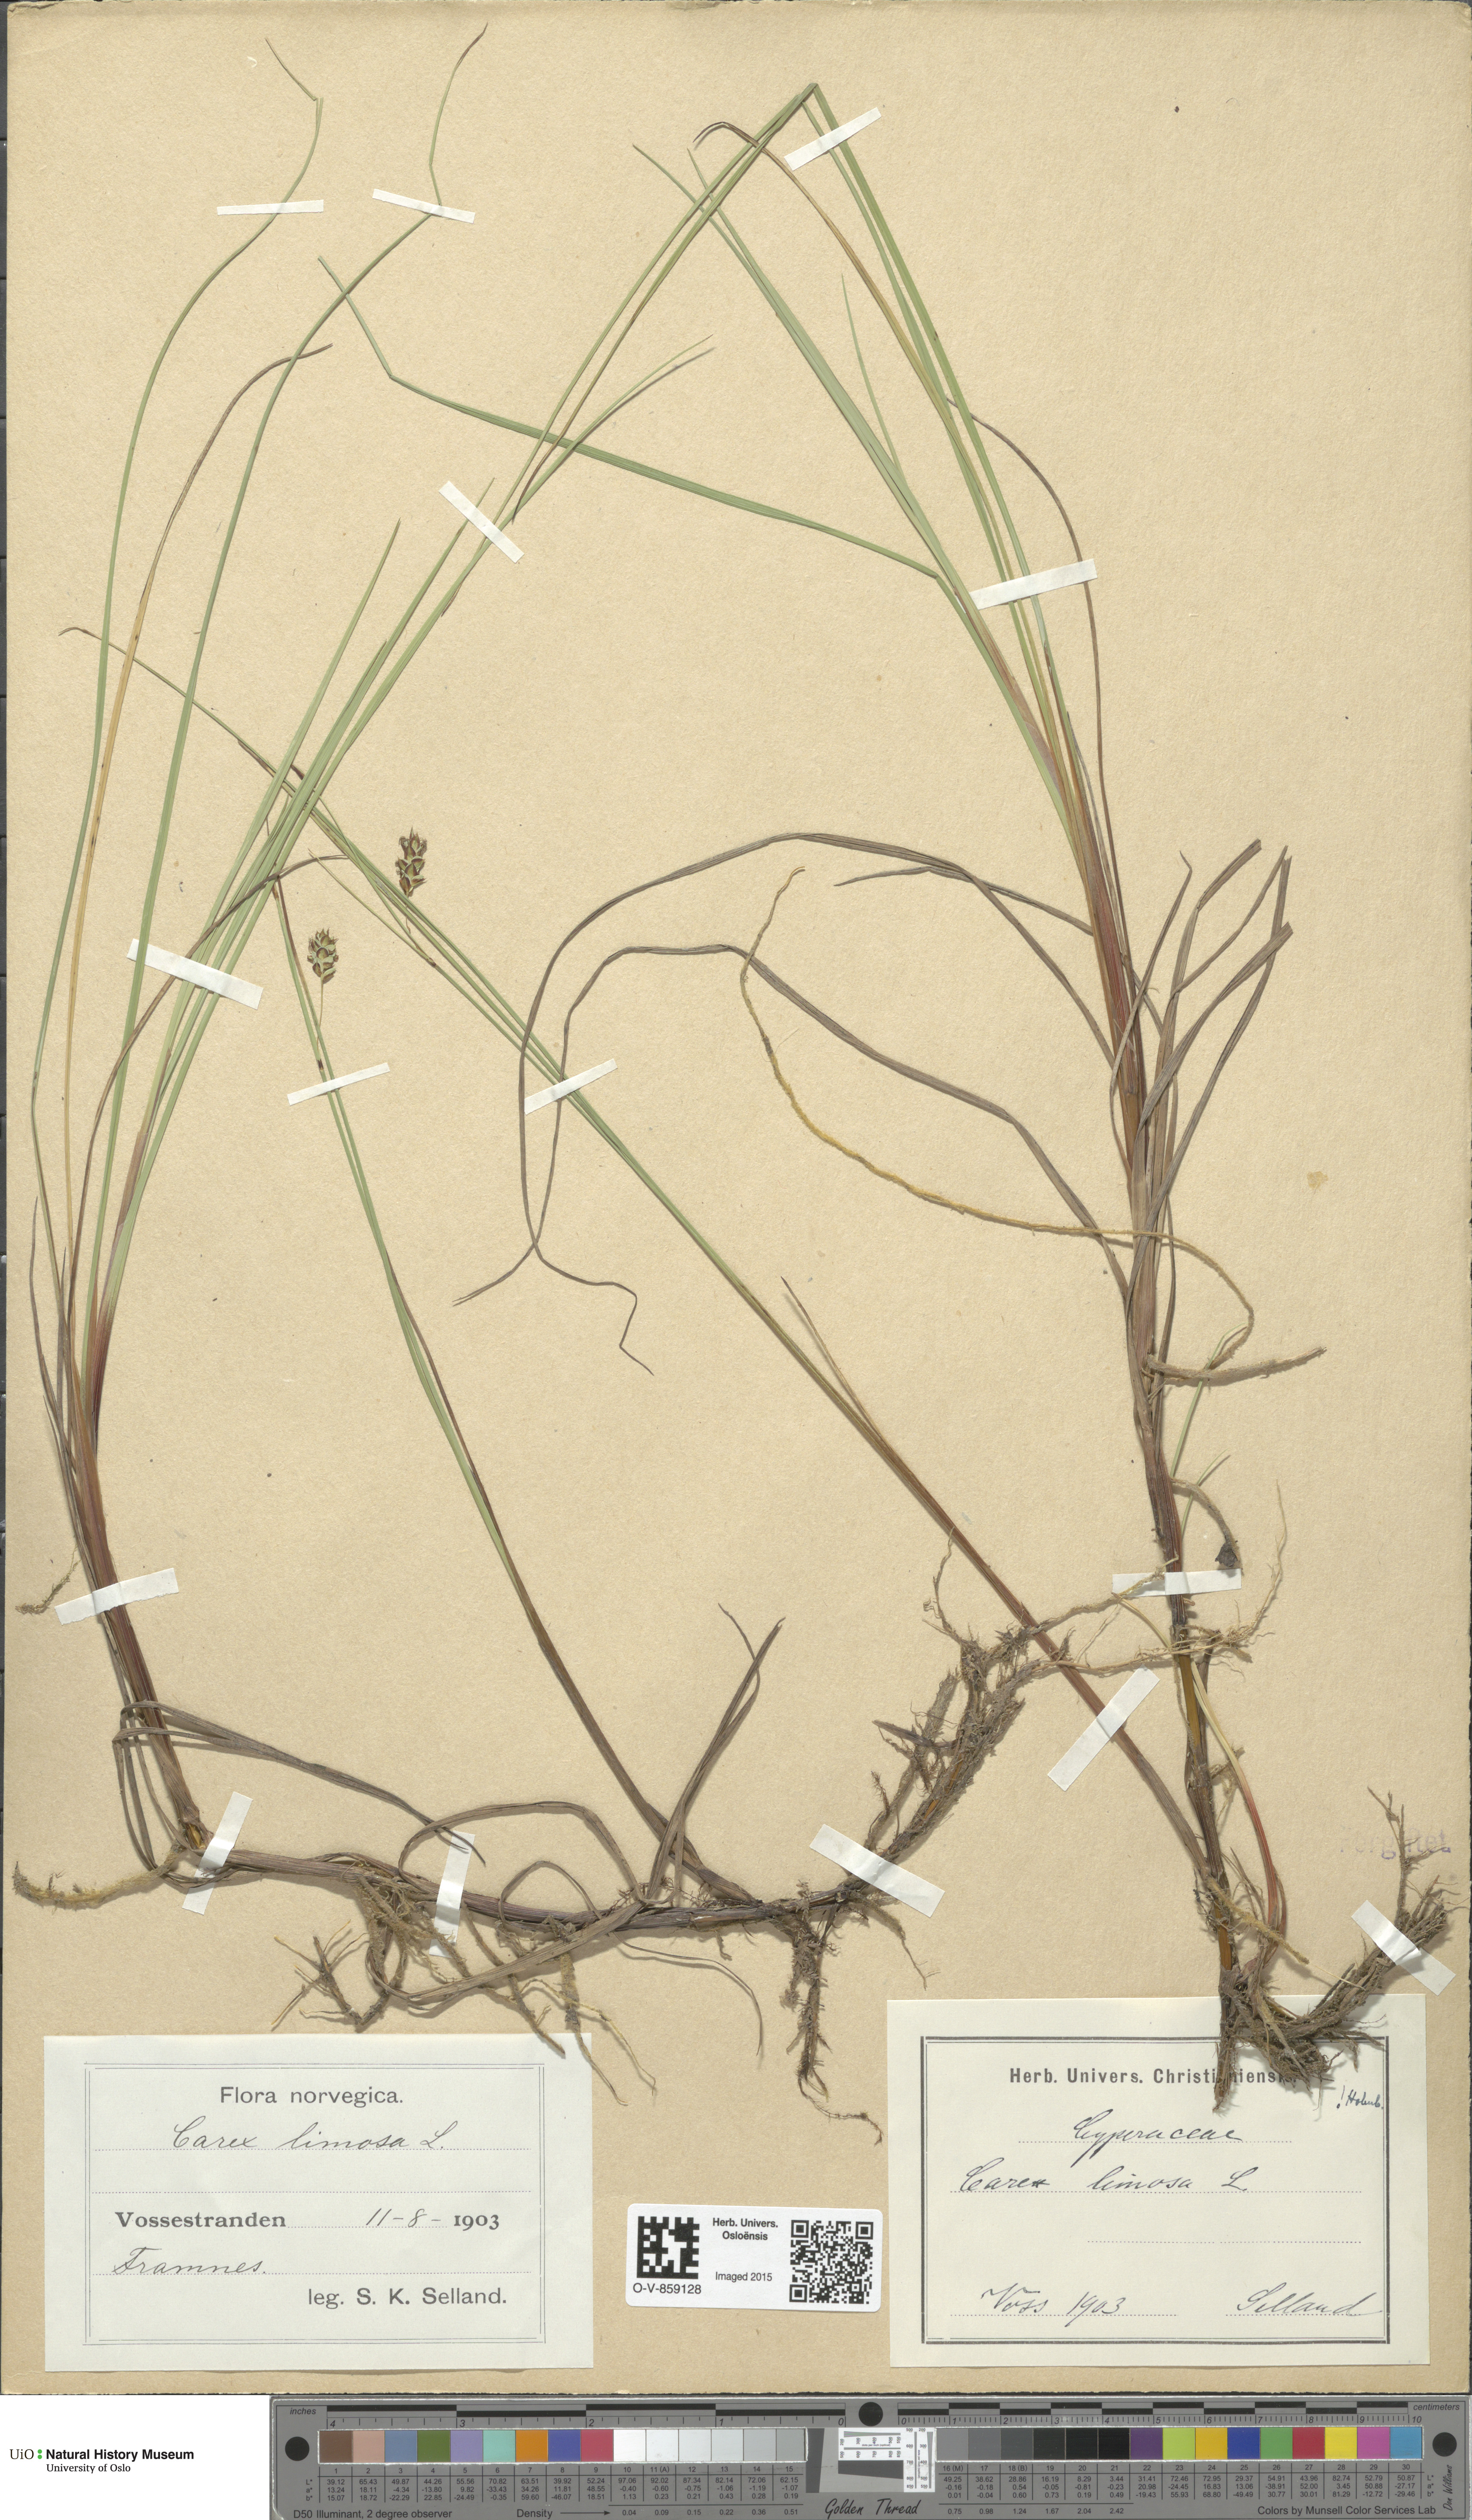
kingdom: Plantae
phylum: Tracheophyta
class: Liliopsida
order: Poales
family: Cyperaceae
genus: Carex
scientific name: Carex limosa
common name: Bog sedge
